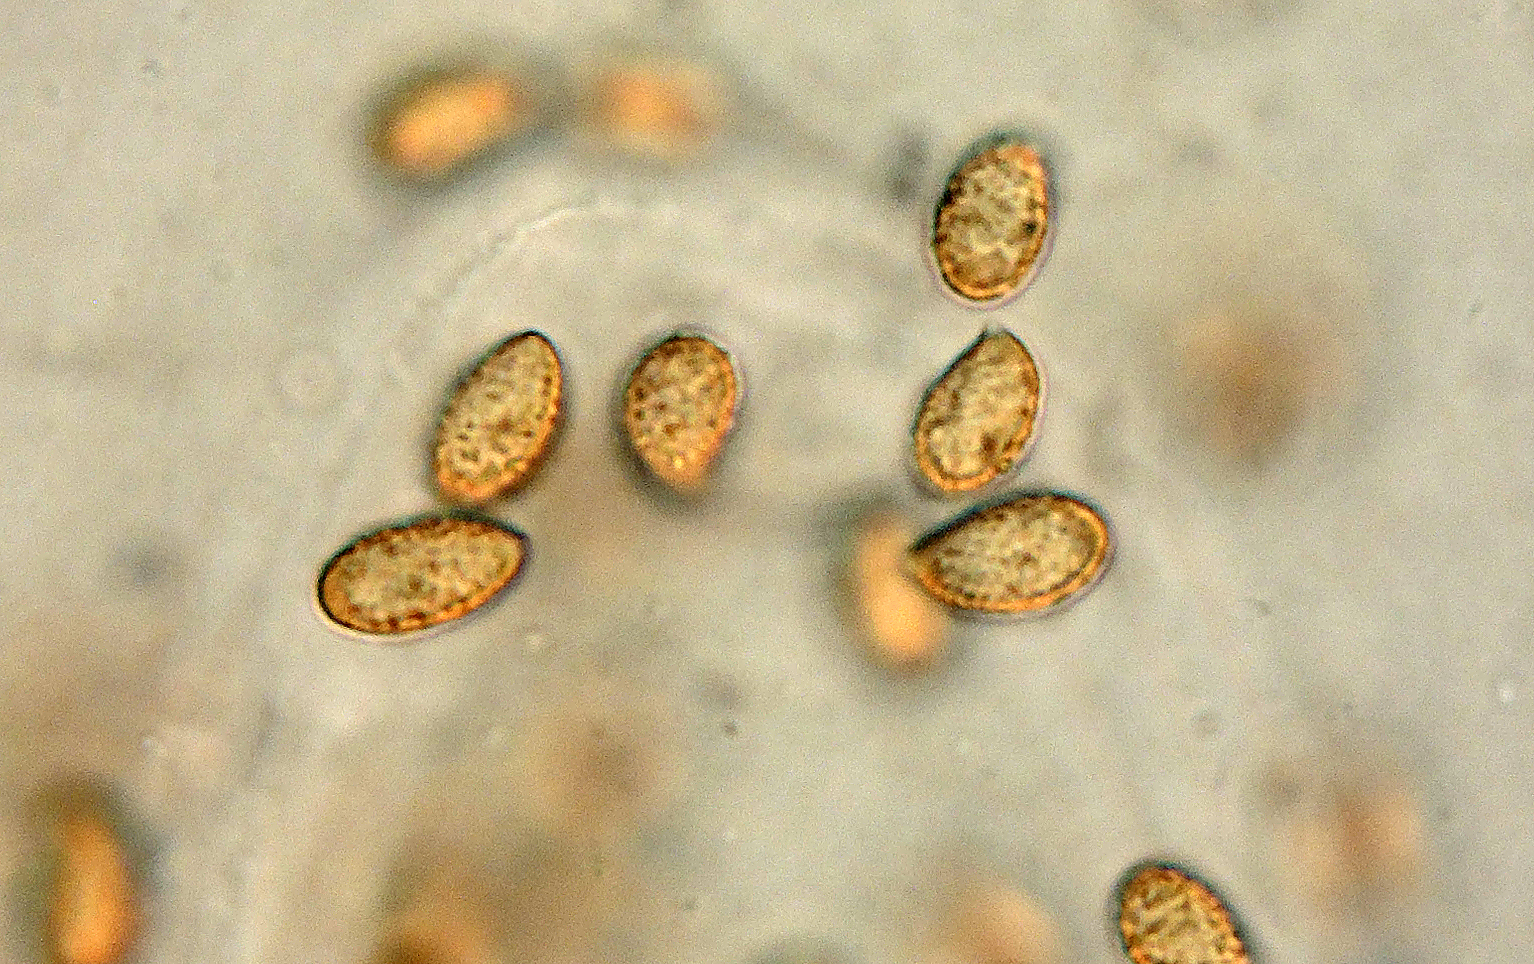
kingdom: Fungi
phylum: Basidiomycota
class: Agaricomycetes
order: Agaricales
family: Cortinariaceae
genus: Thaxterogaster
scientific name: Thaxterogaster subpurpurascens
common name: mørkblånende slørhat
